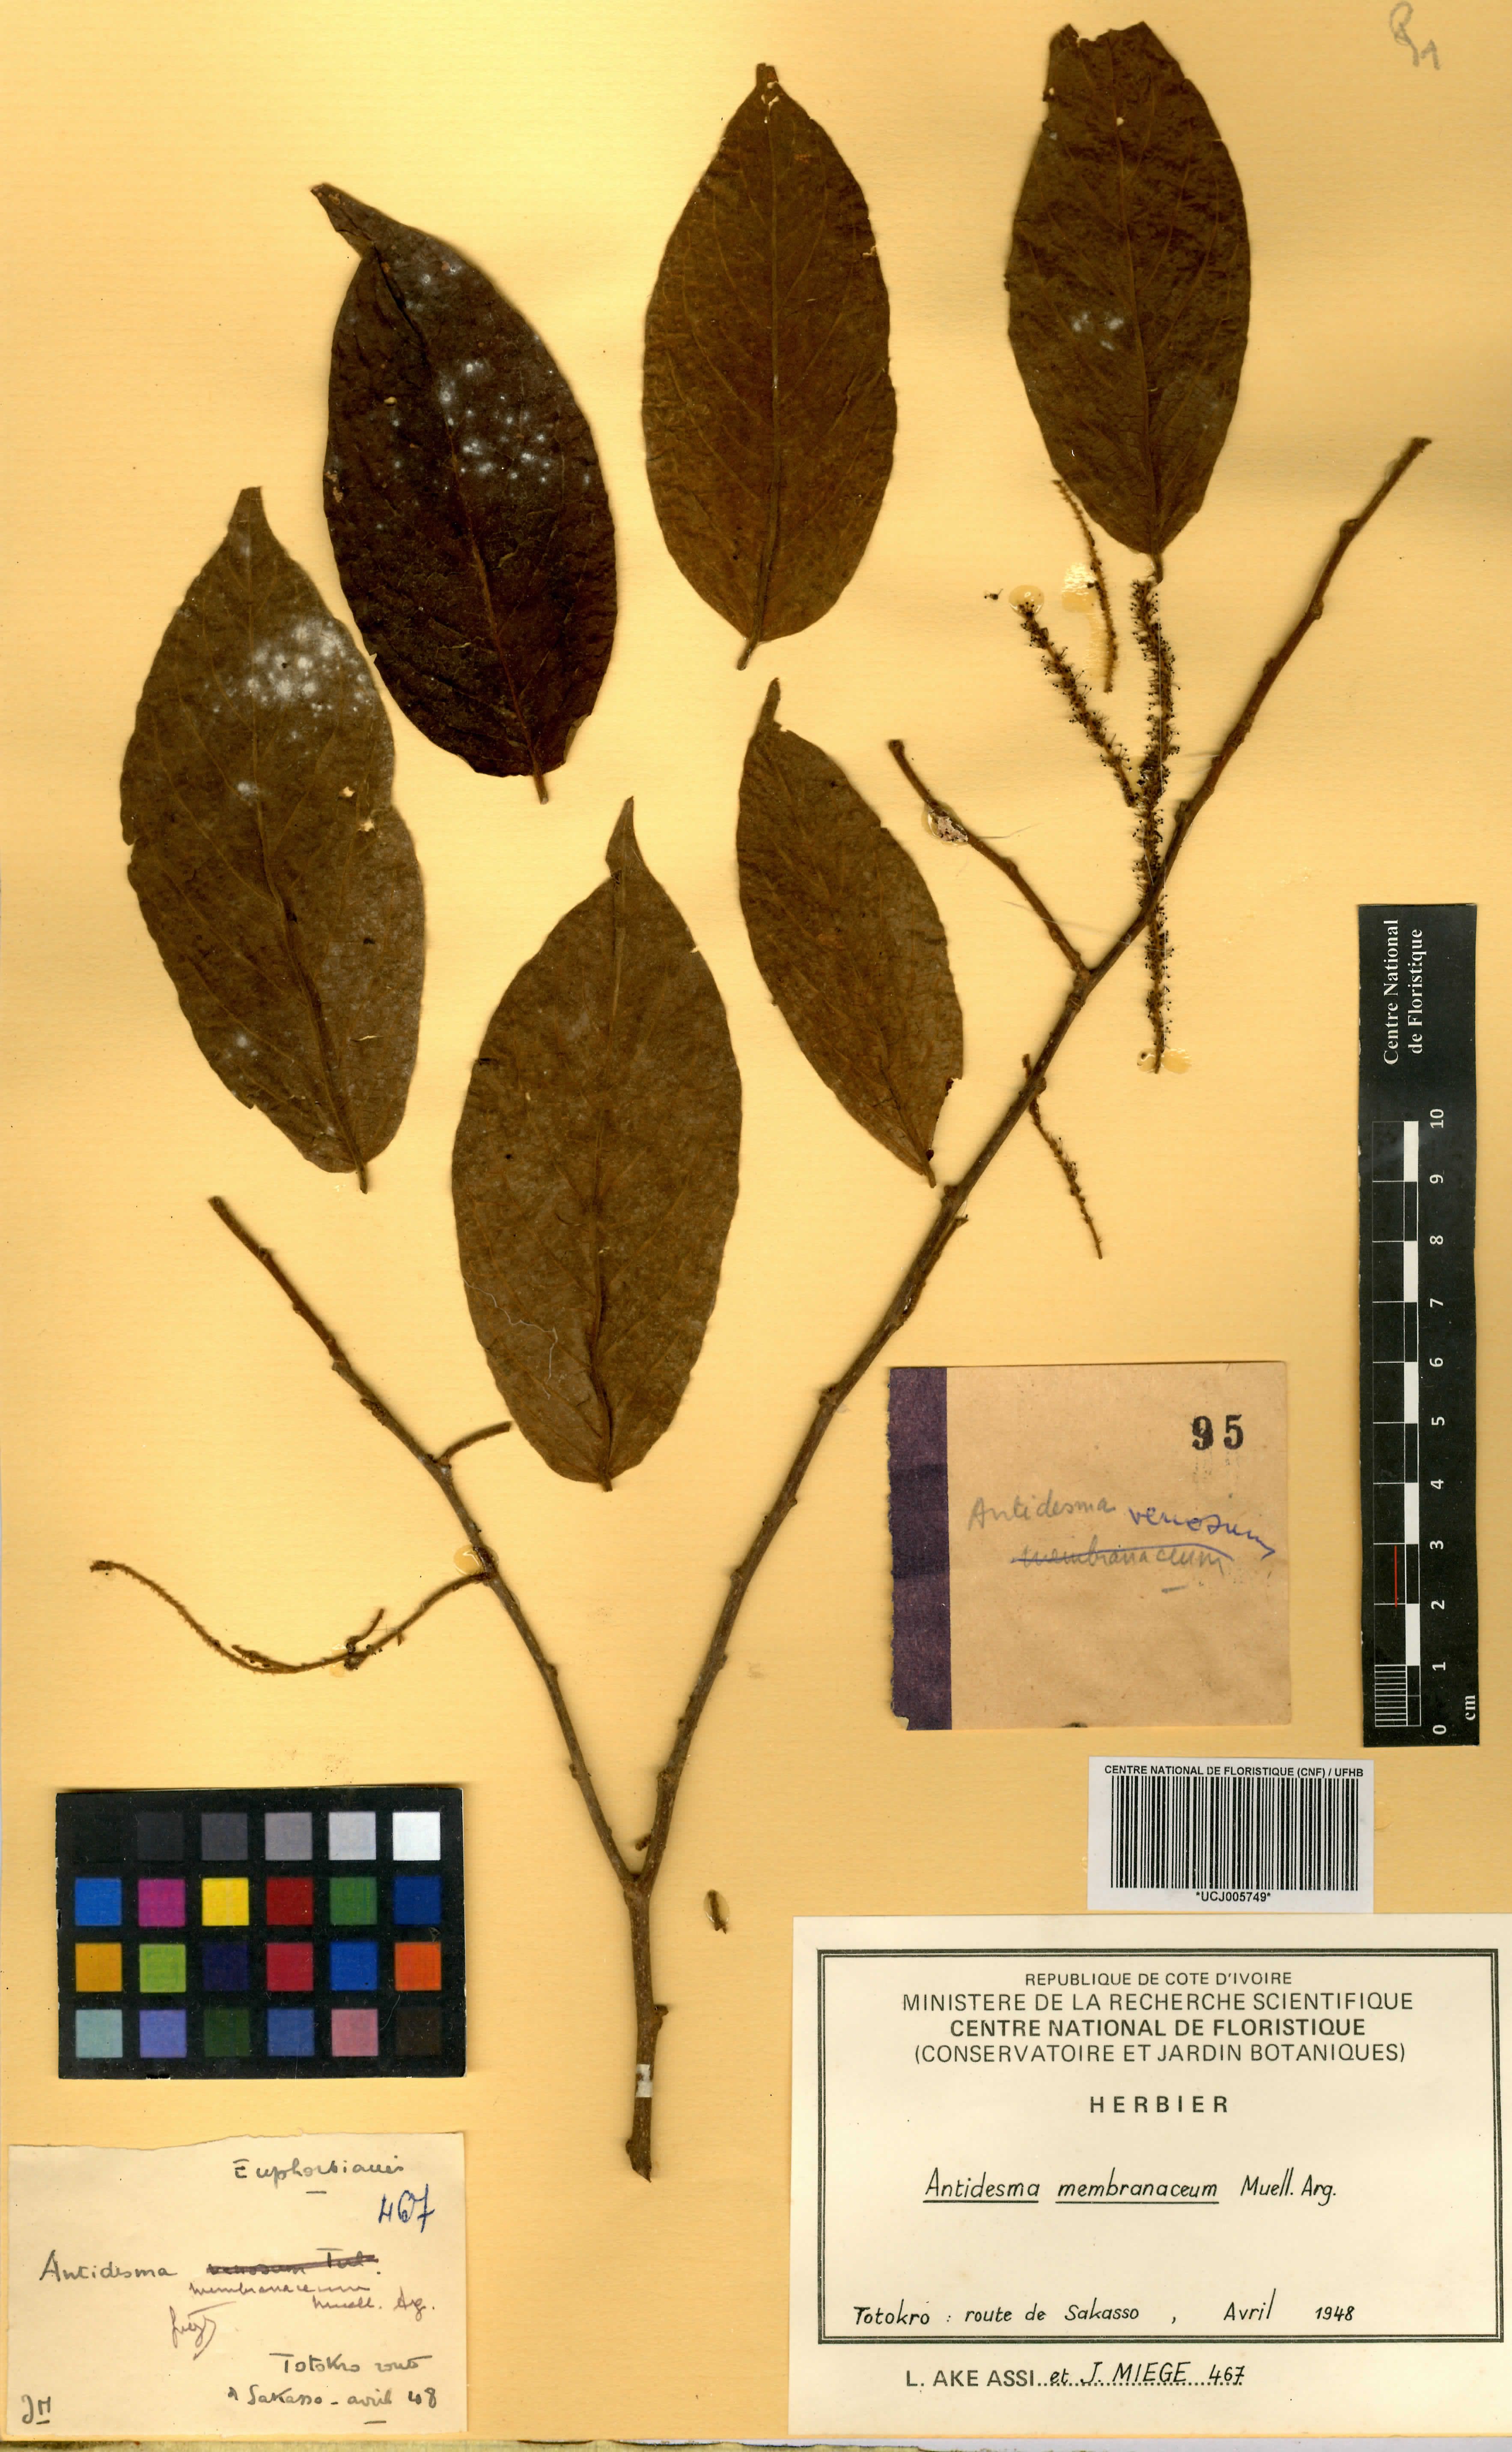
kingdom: Plantae
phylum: Tracheophyta
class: Magnoliopsida
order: Malpighiales
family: Phyllanthaceae
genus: Antidesma
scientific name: Antidesma membranaceum
